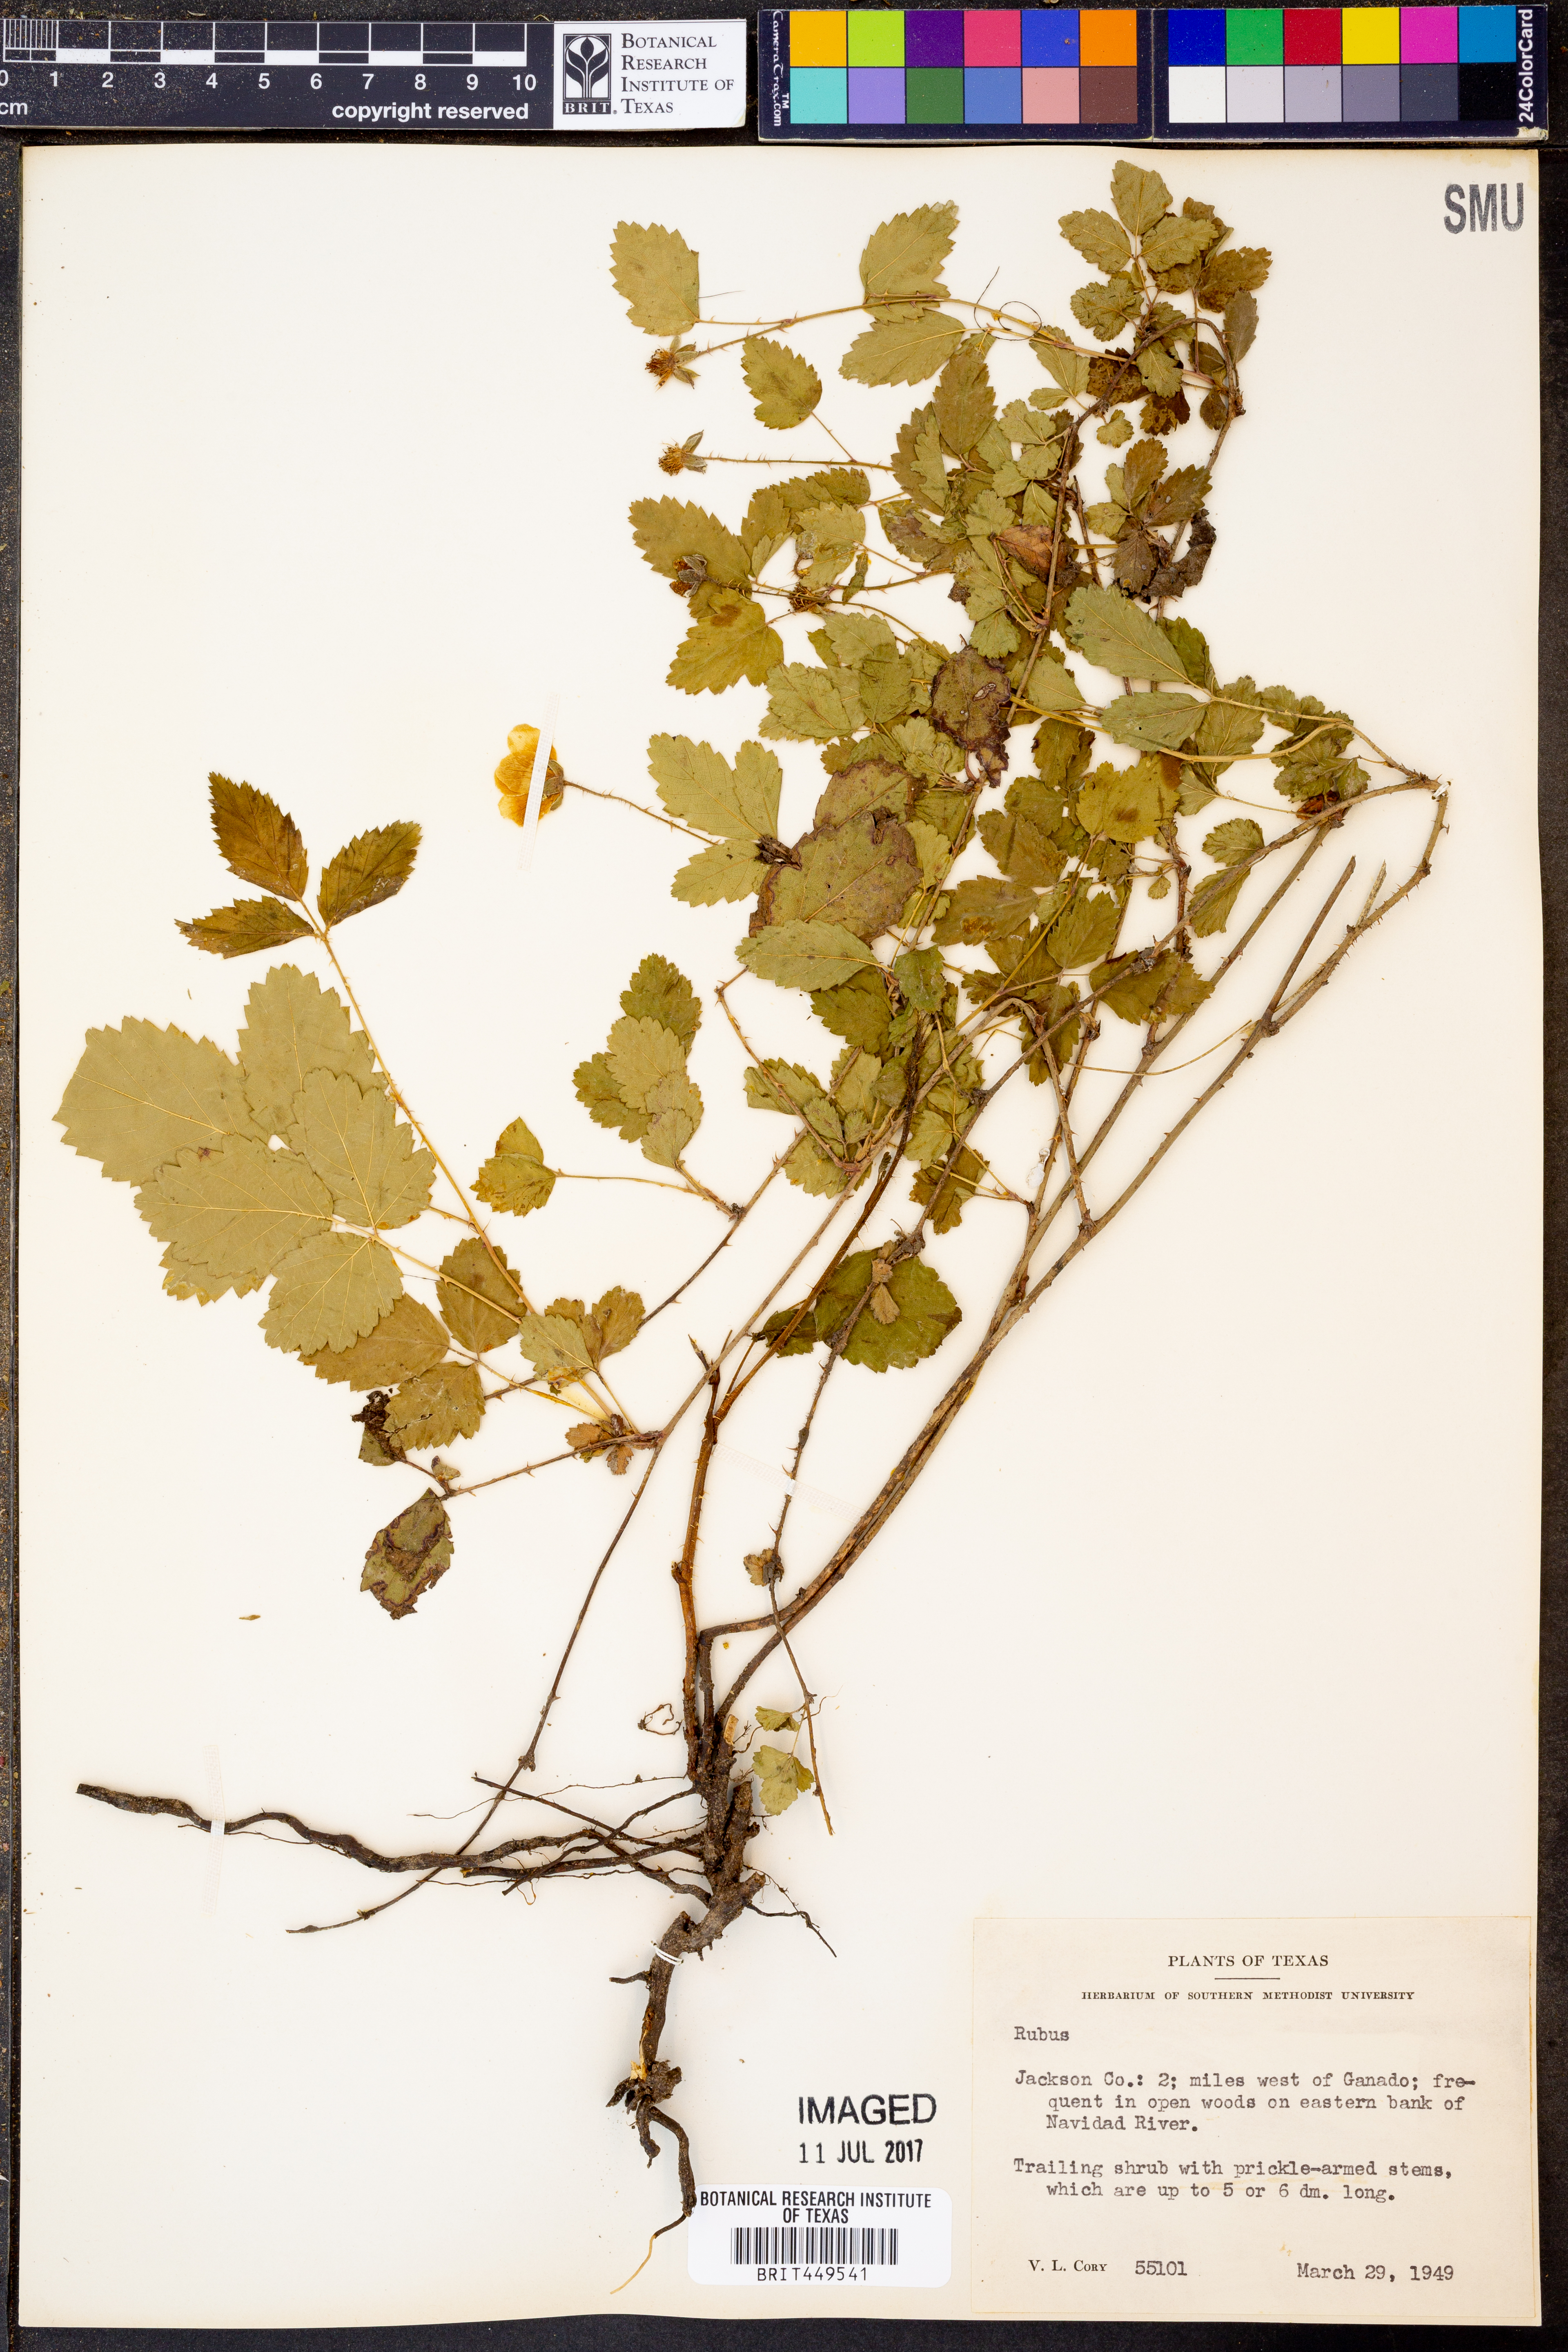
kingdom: Plantae
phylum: Tracheophyta
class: Magnoliopsida
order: Rosales
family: Rosaceae
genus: Rubus
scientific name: Rubus
